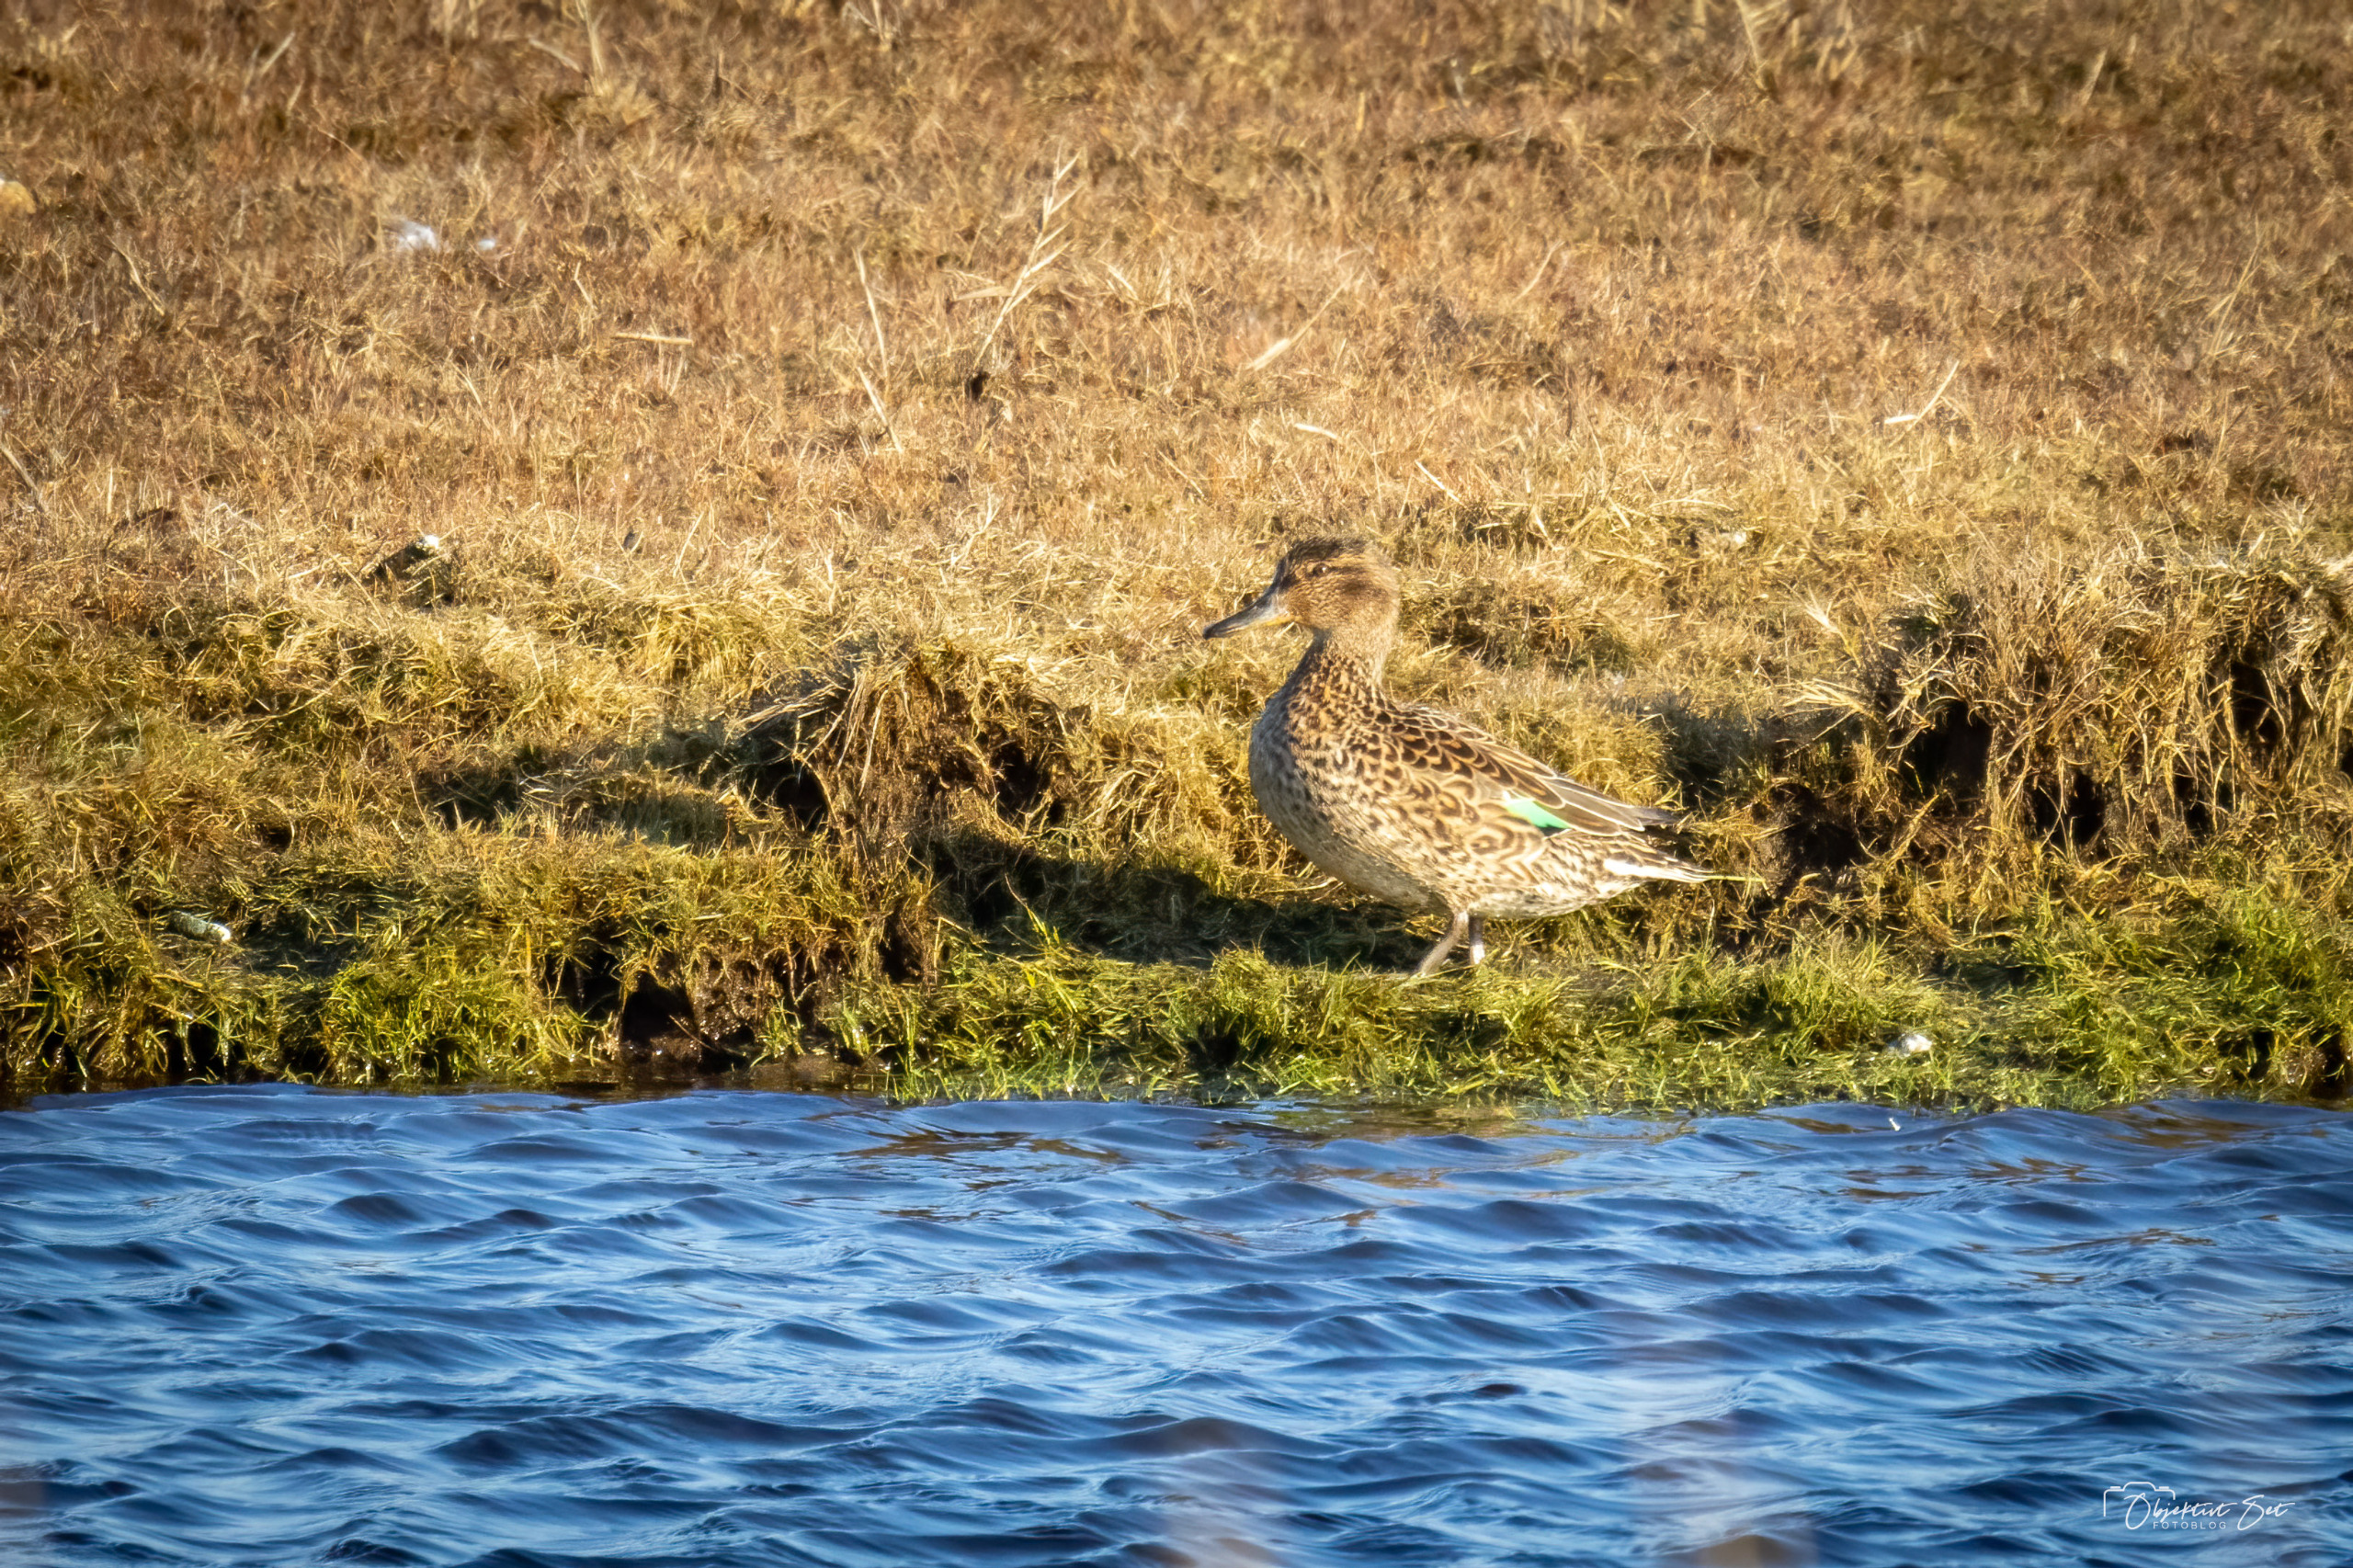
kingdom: Animalia
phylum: Chordata
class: Aves
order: Anseriformes
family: Anatidae
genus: Anas
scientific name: Anas crecca
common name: Krikand
